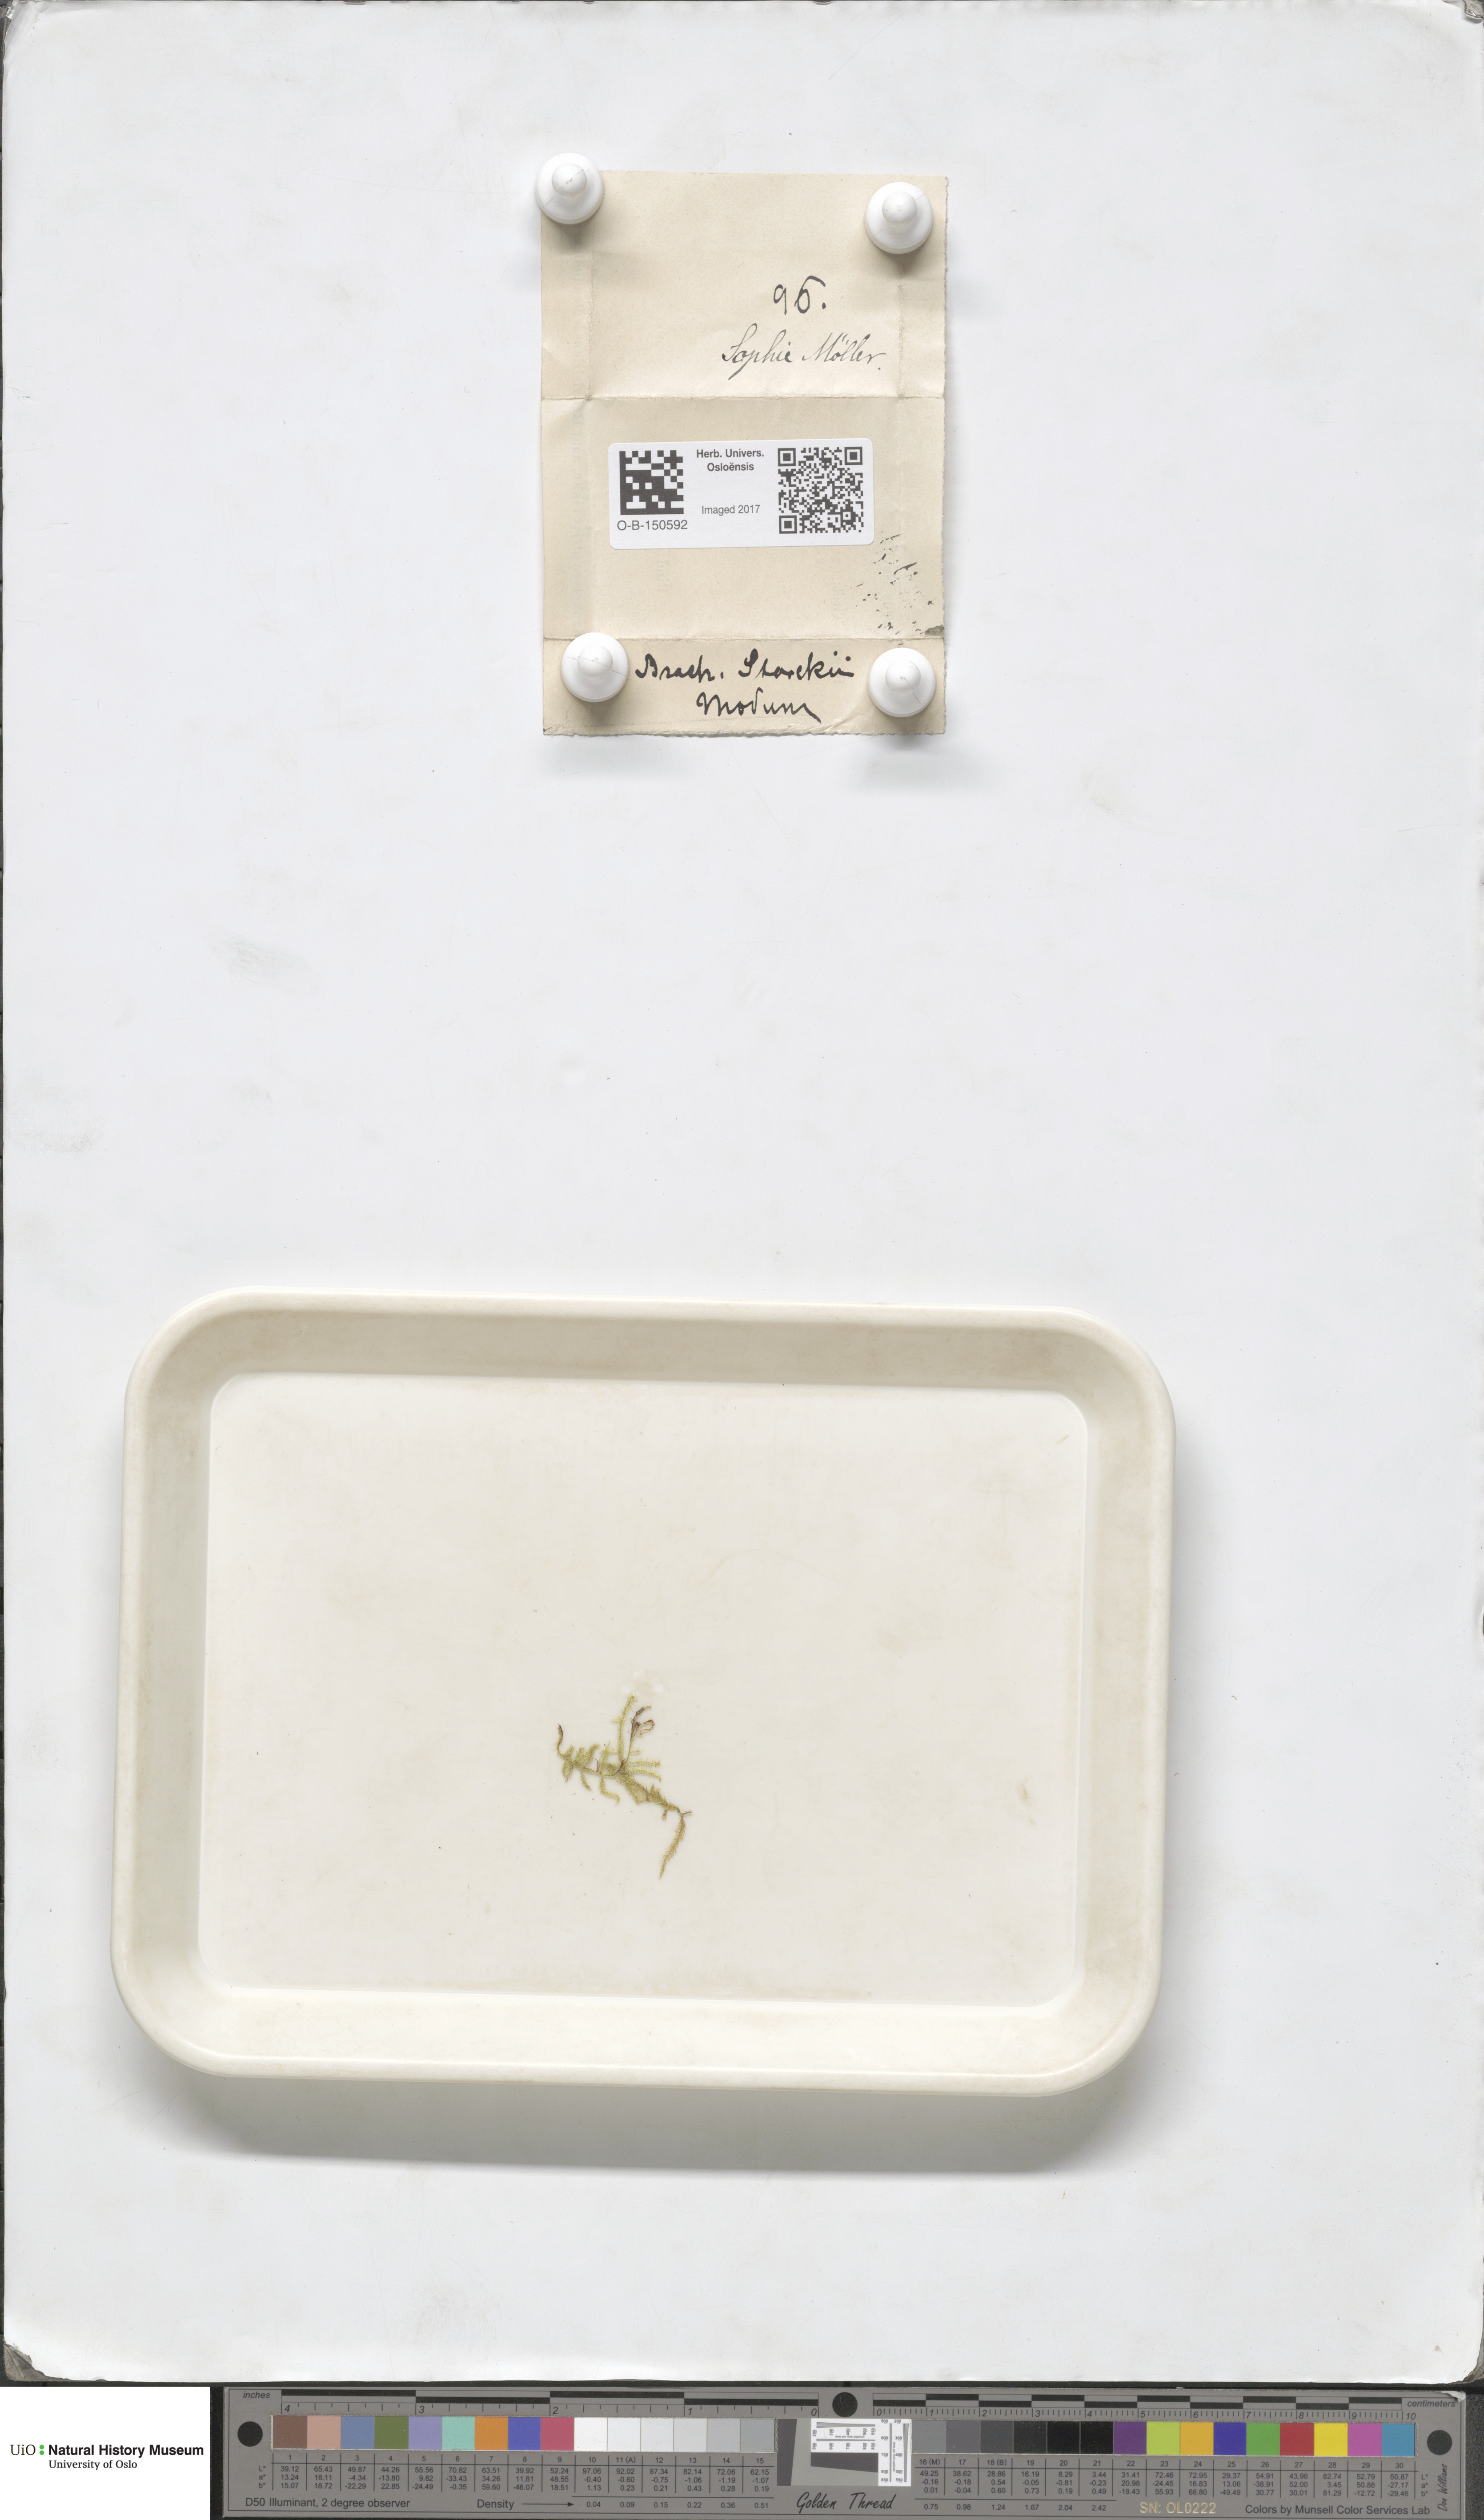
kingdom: Plantae
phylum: Bryophyta
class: Bryopsida
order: Hypnales
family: Brachytheciaceae
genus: Sciuro-hypnum
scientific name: Sciuro-hypnum starkei
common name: Starke's feather-moss
